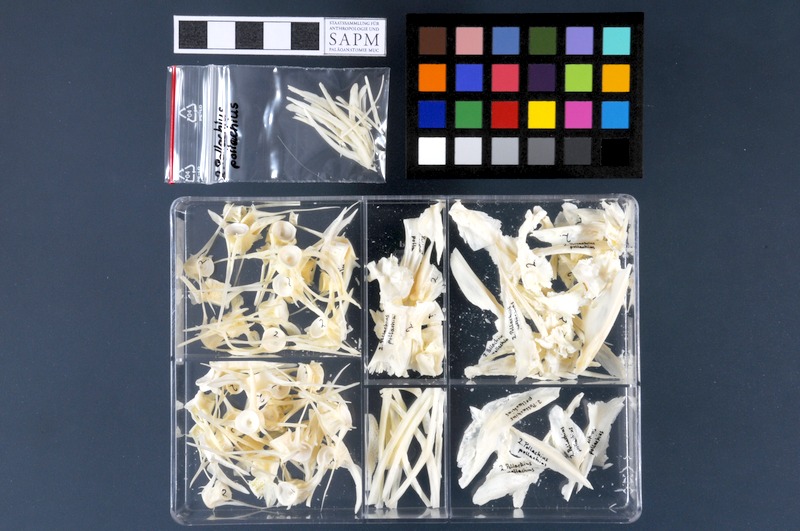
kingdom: Animalia
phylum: Chordata
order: Gadiformes
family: Gadidae
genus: Pollachius
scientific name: Pollachius pollachius
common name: Pollack
